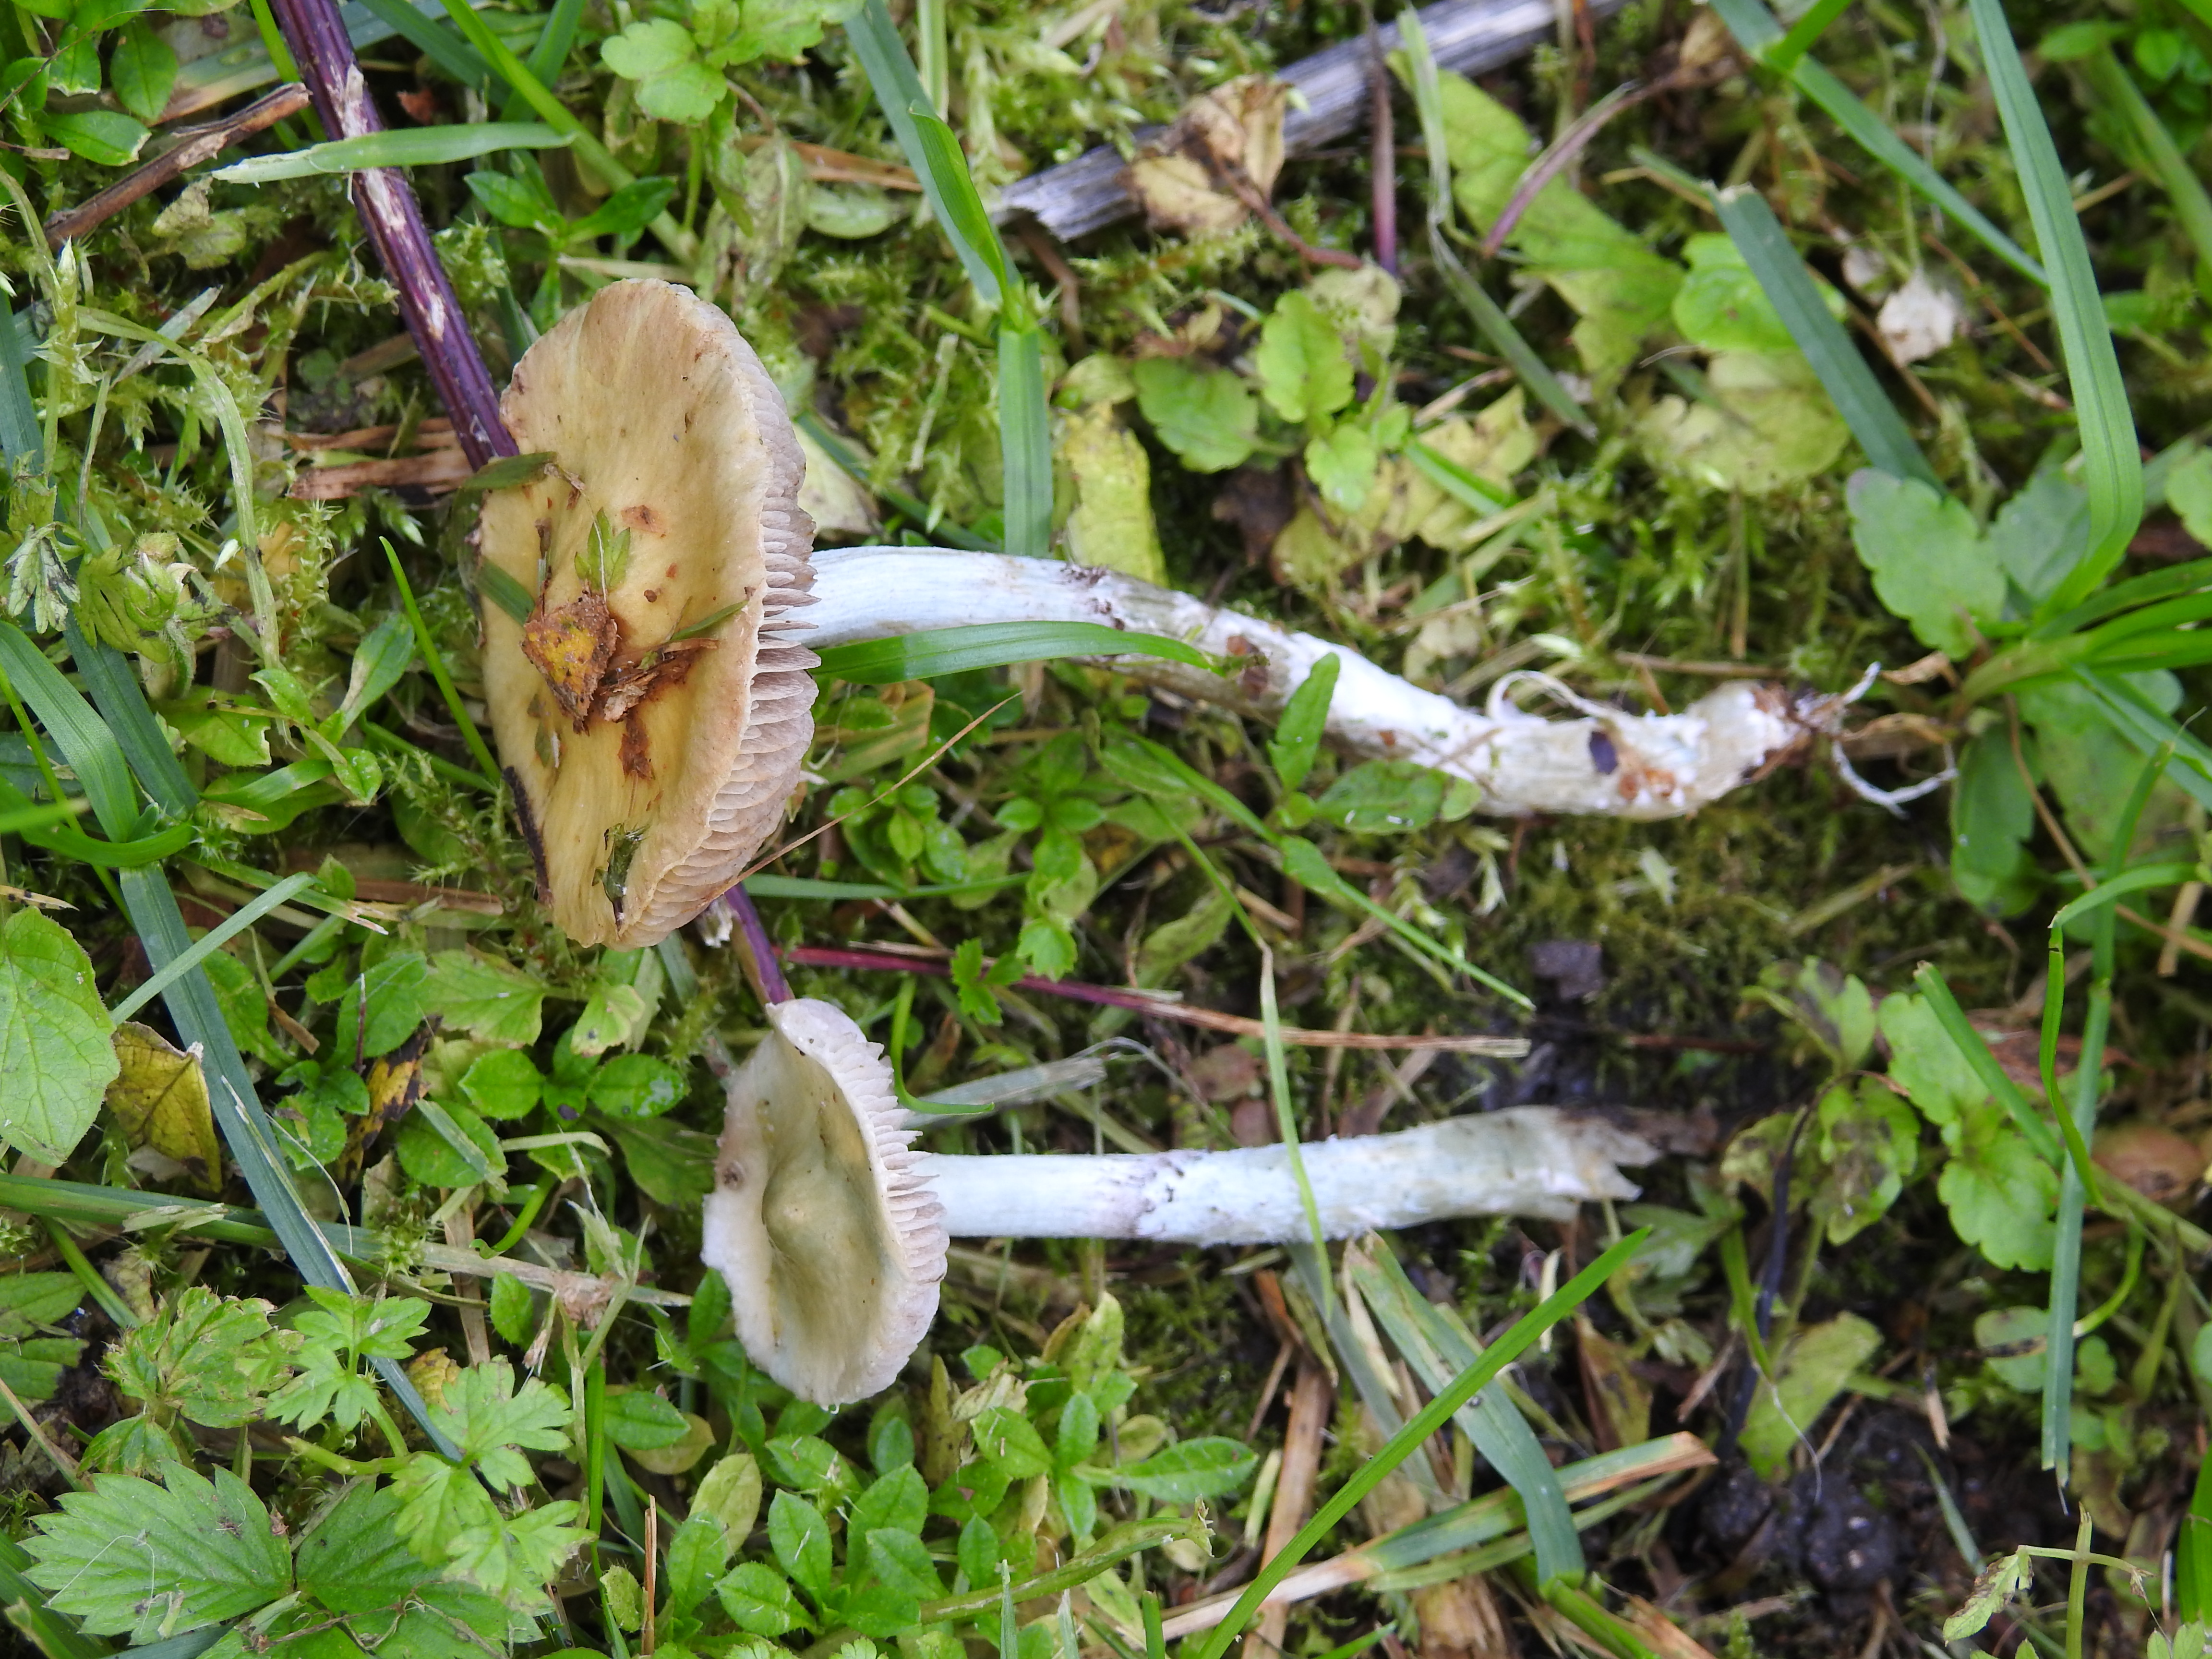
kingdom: Fungi
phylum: Basidiomycota
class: Agaricomycetes
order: Agaricales
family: Strophariaceae
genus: Stropharia
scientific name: Stropharia caerulea
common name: Blue roundhead
